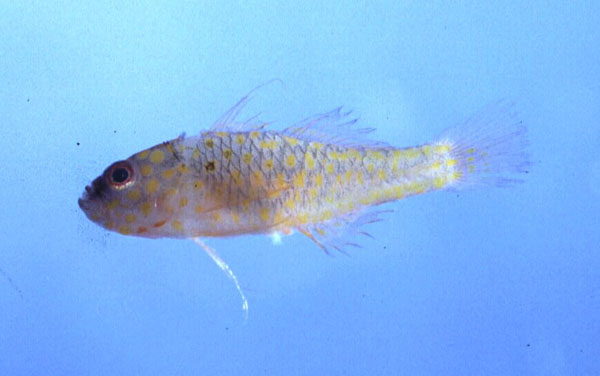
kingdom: Animalia
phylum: Chordata
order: Perciformes
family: Gobiidae
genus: Trimma
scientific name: Trimma flammeum
